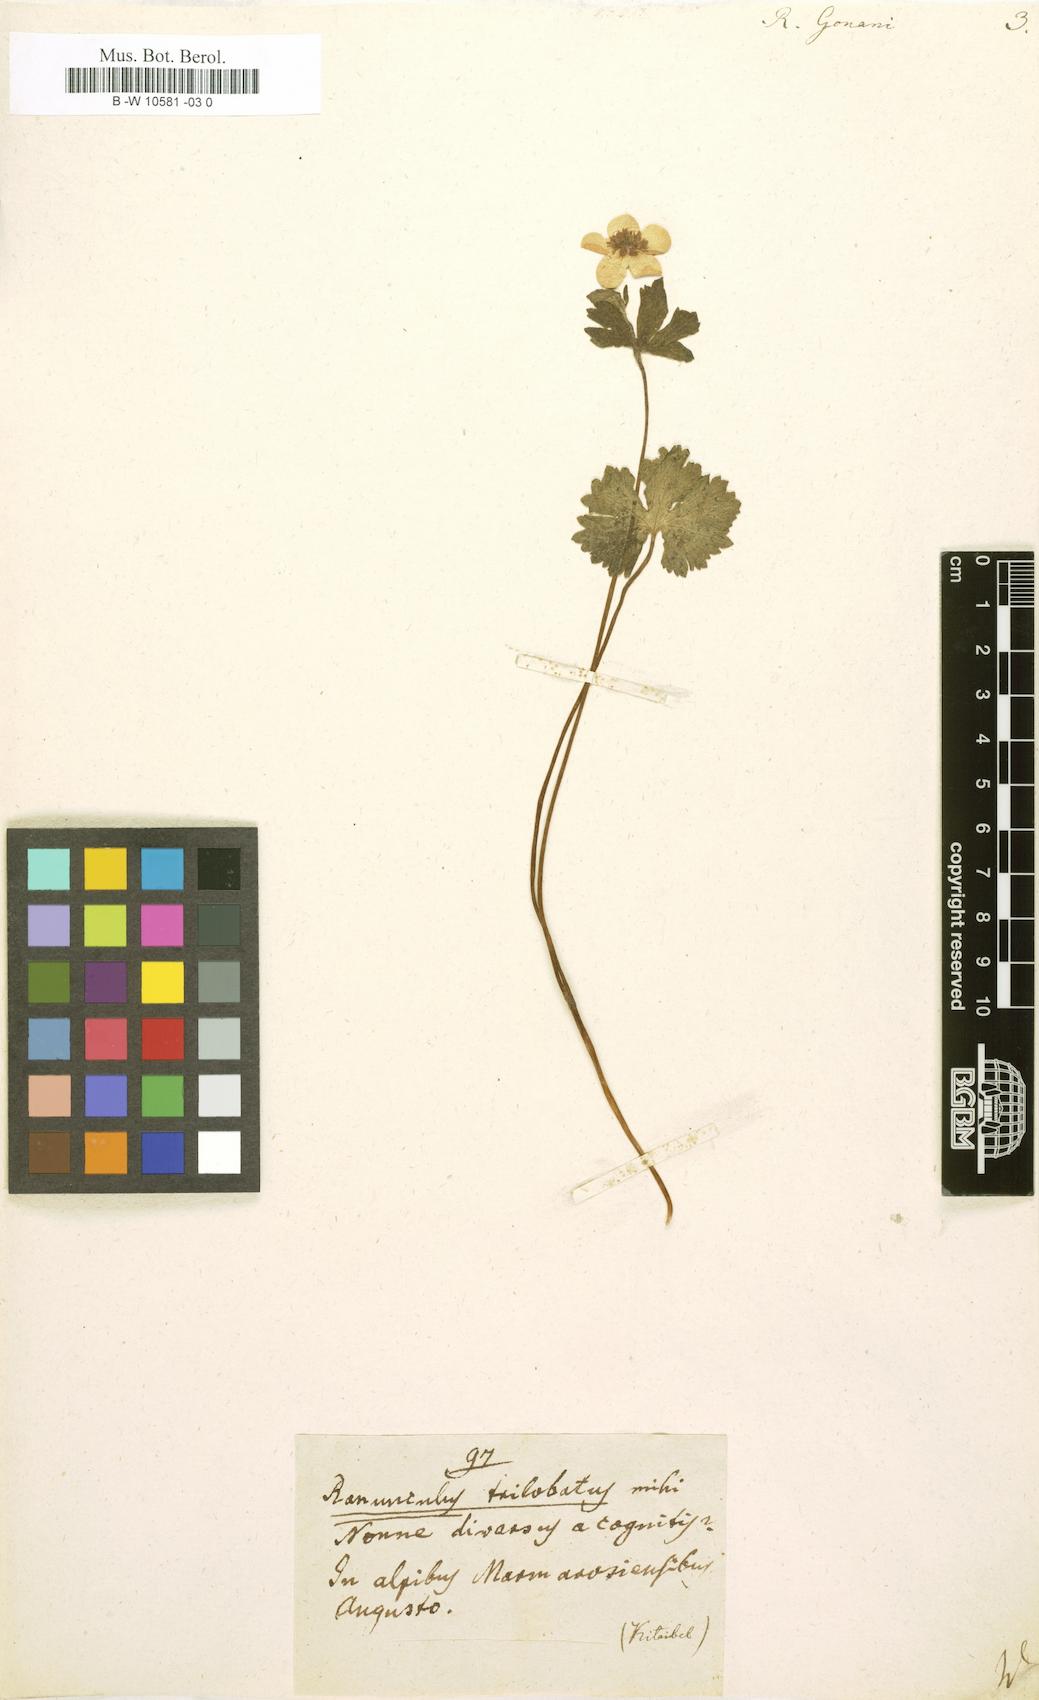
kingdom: Plantae
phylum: Tracheophyta
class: Magnoliopsida
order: Ranunculales
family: Ranunculaceae
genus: Ranunculus
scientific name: Ranunculus gouani
